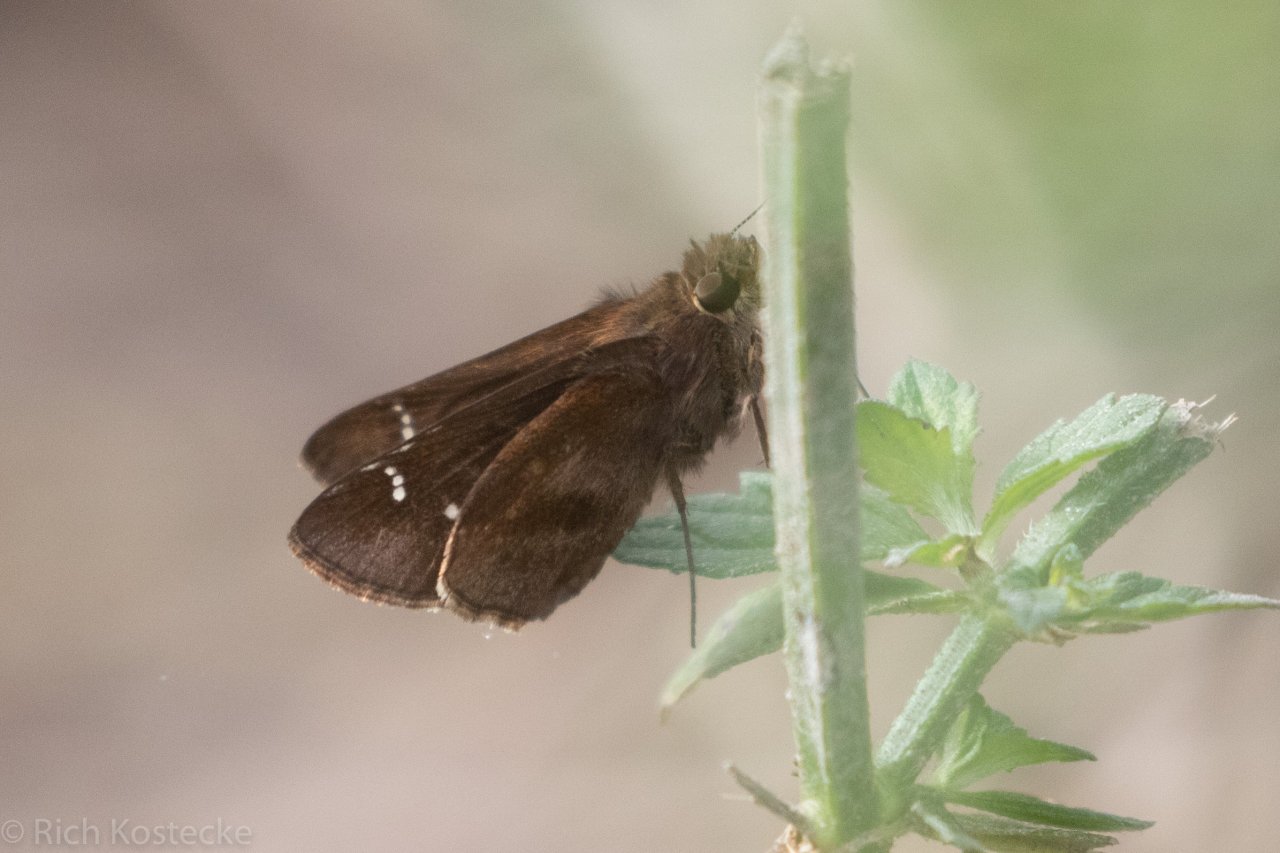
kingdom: Animalia
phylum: Arthropoda
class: Insecta
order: Lepidoptera
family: Hesperiidae
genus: Lerema
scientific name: Lerema accius
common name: Clouded Skipper
